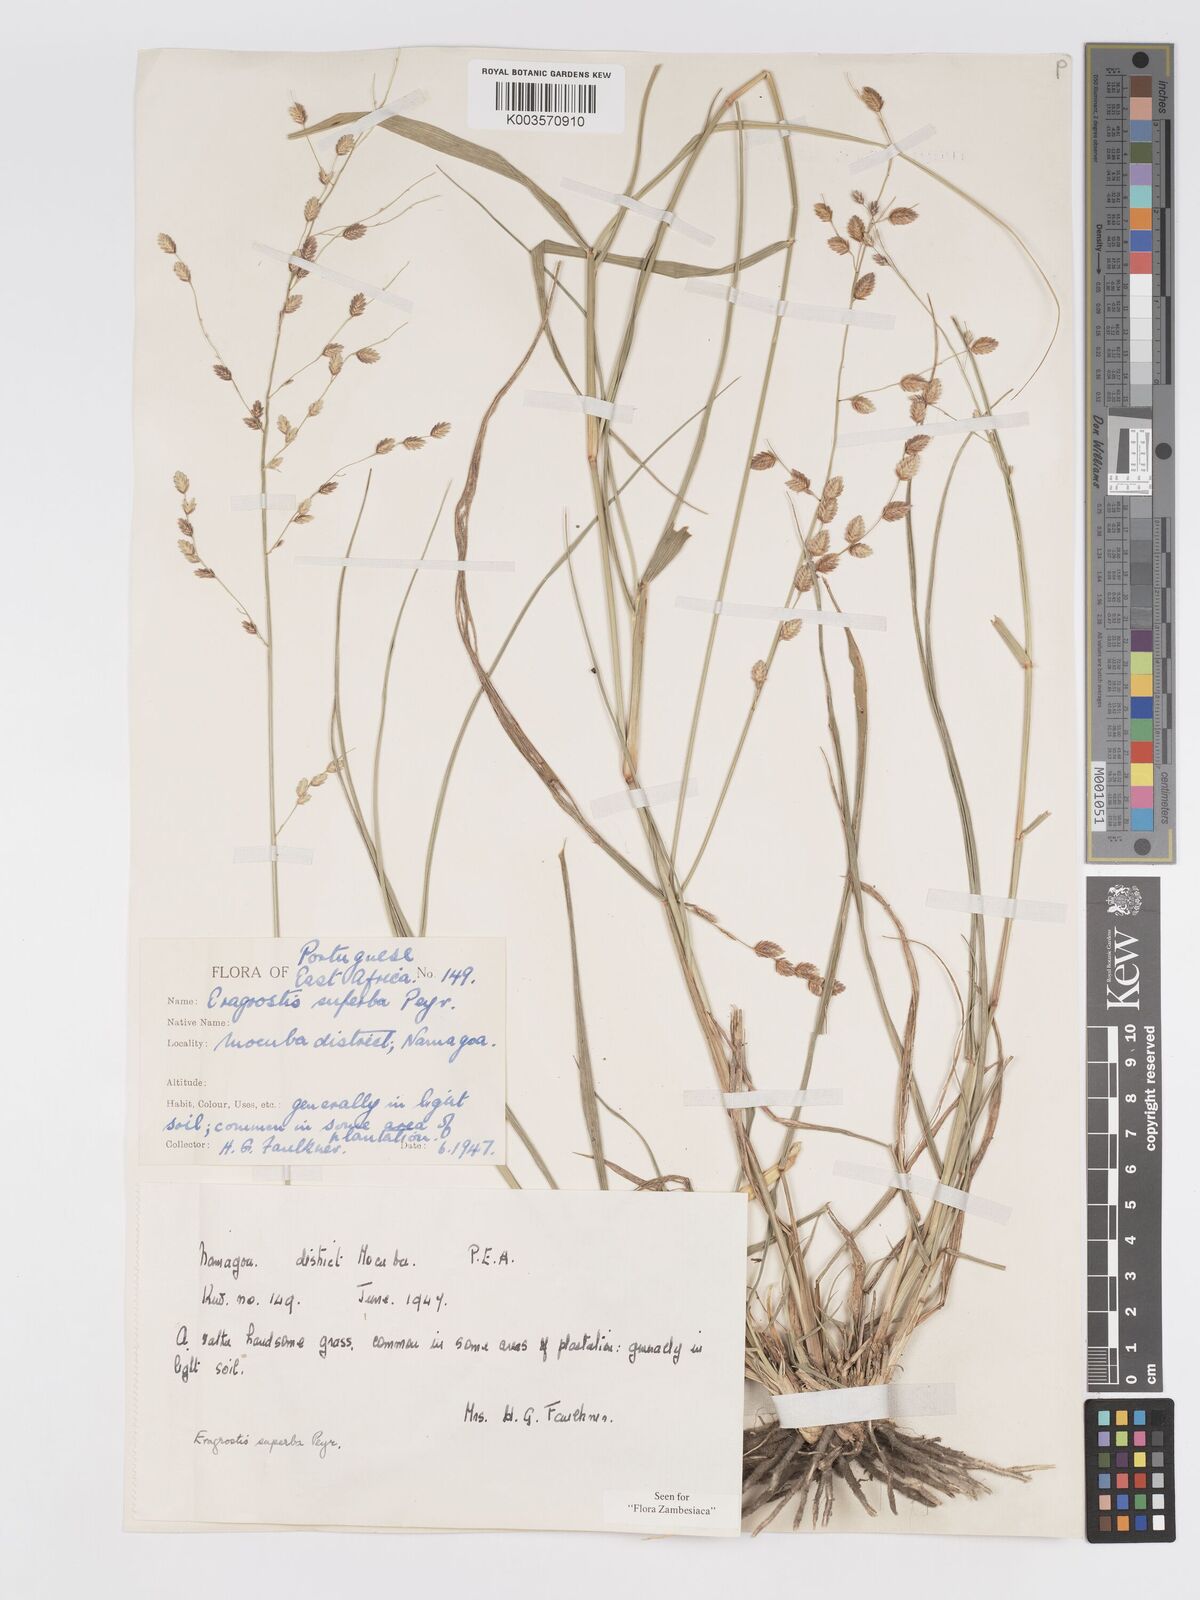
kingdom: Plantae
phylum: Tracheophyta
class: Liliopsida
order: Poales
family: Poaceae
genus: Eragrostis
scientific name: Eragrostis superba
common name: Wilman lovegrass
